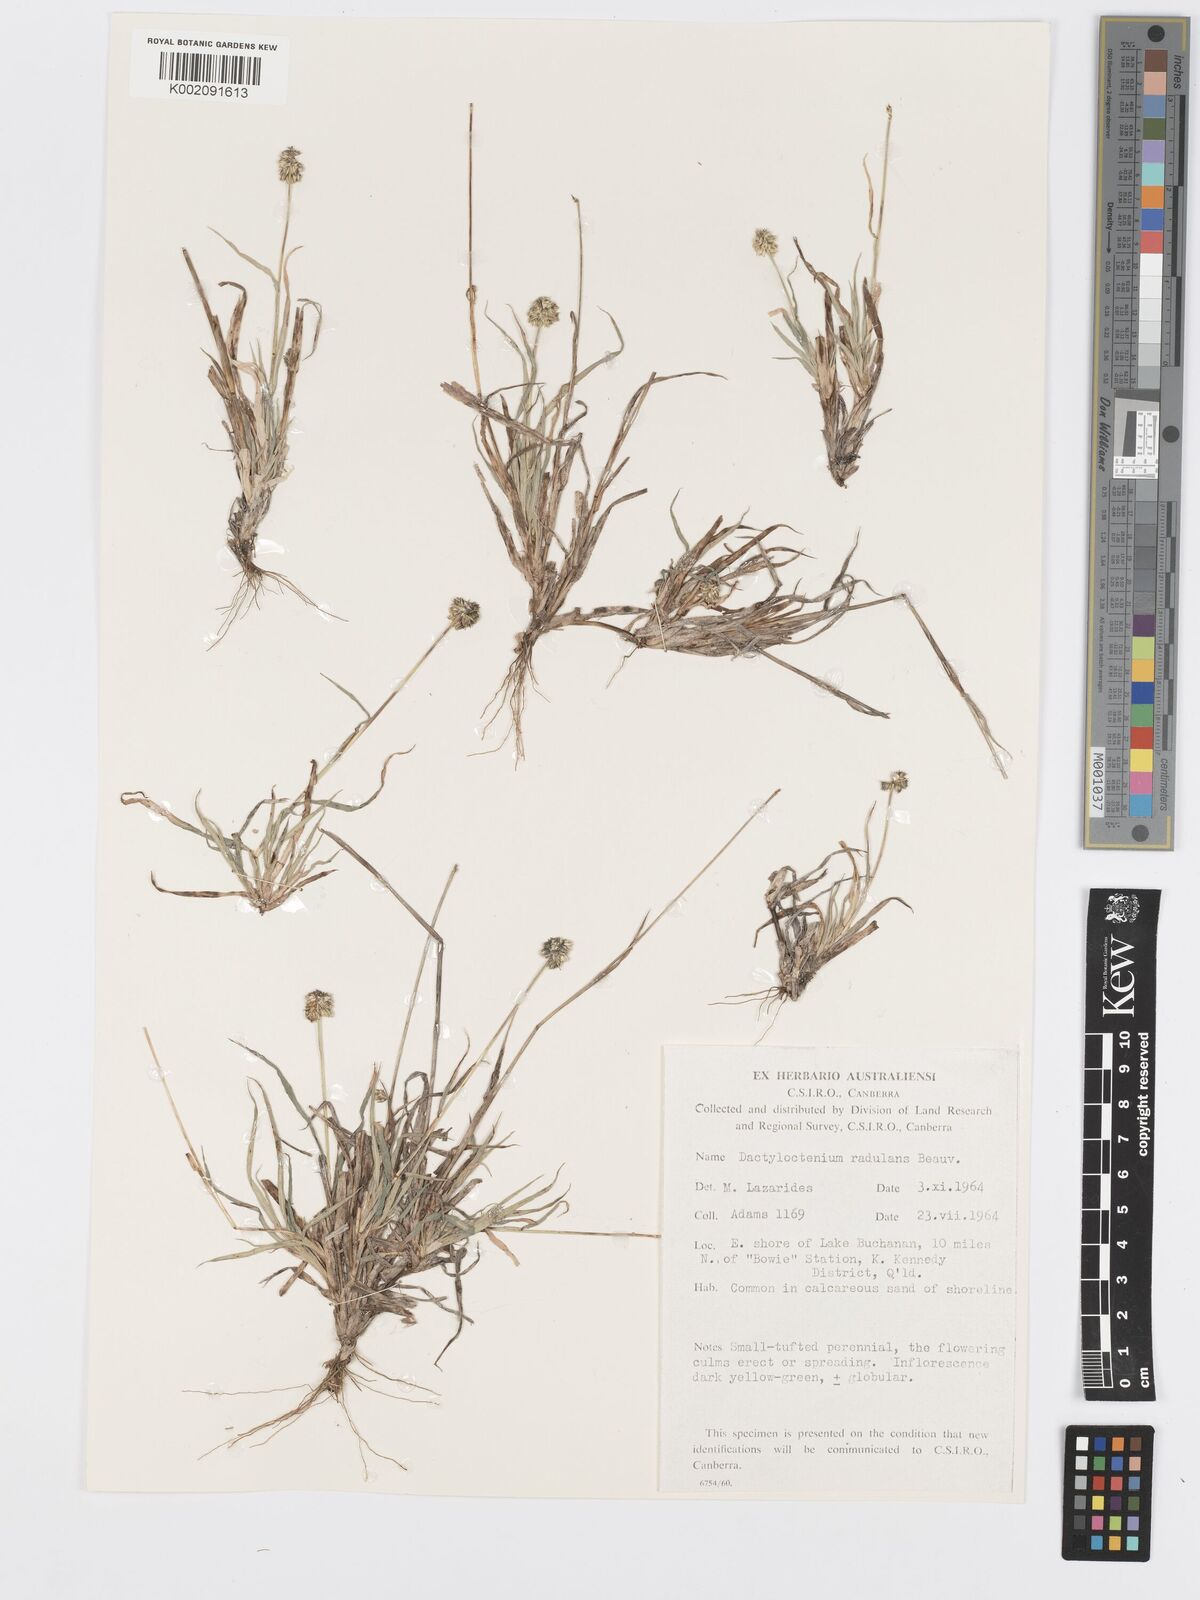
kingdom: Plantae
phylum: Tracheophyta
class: Liliopsida
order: Poales
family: Poaceae
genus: Dactyloctenium
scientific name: Dactyloctenium radulans
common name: Button-grass
